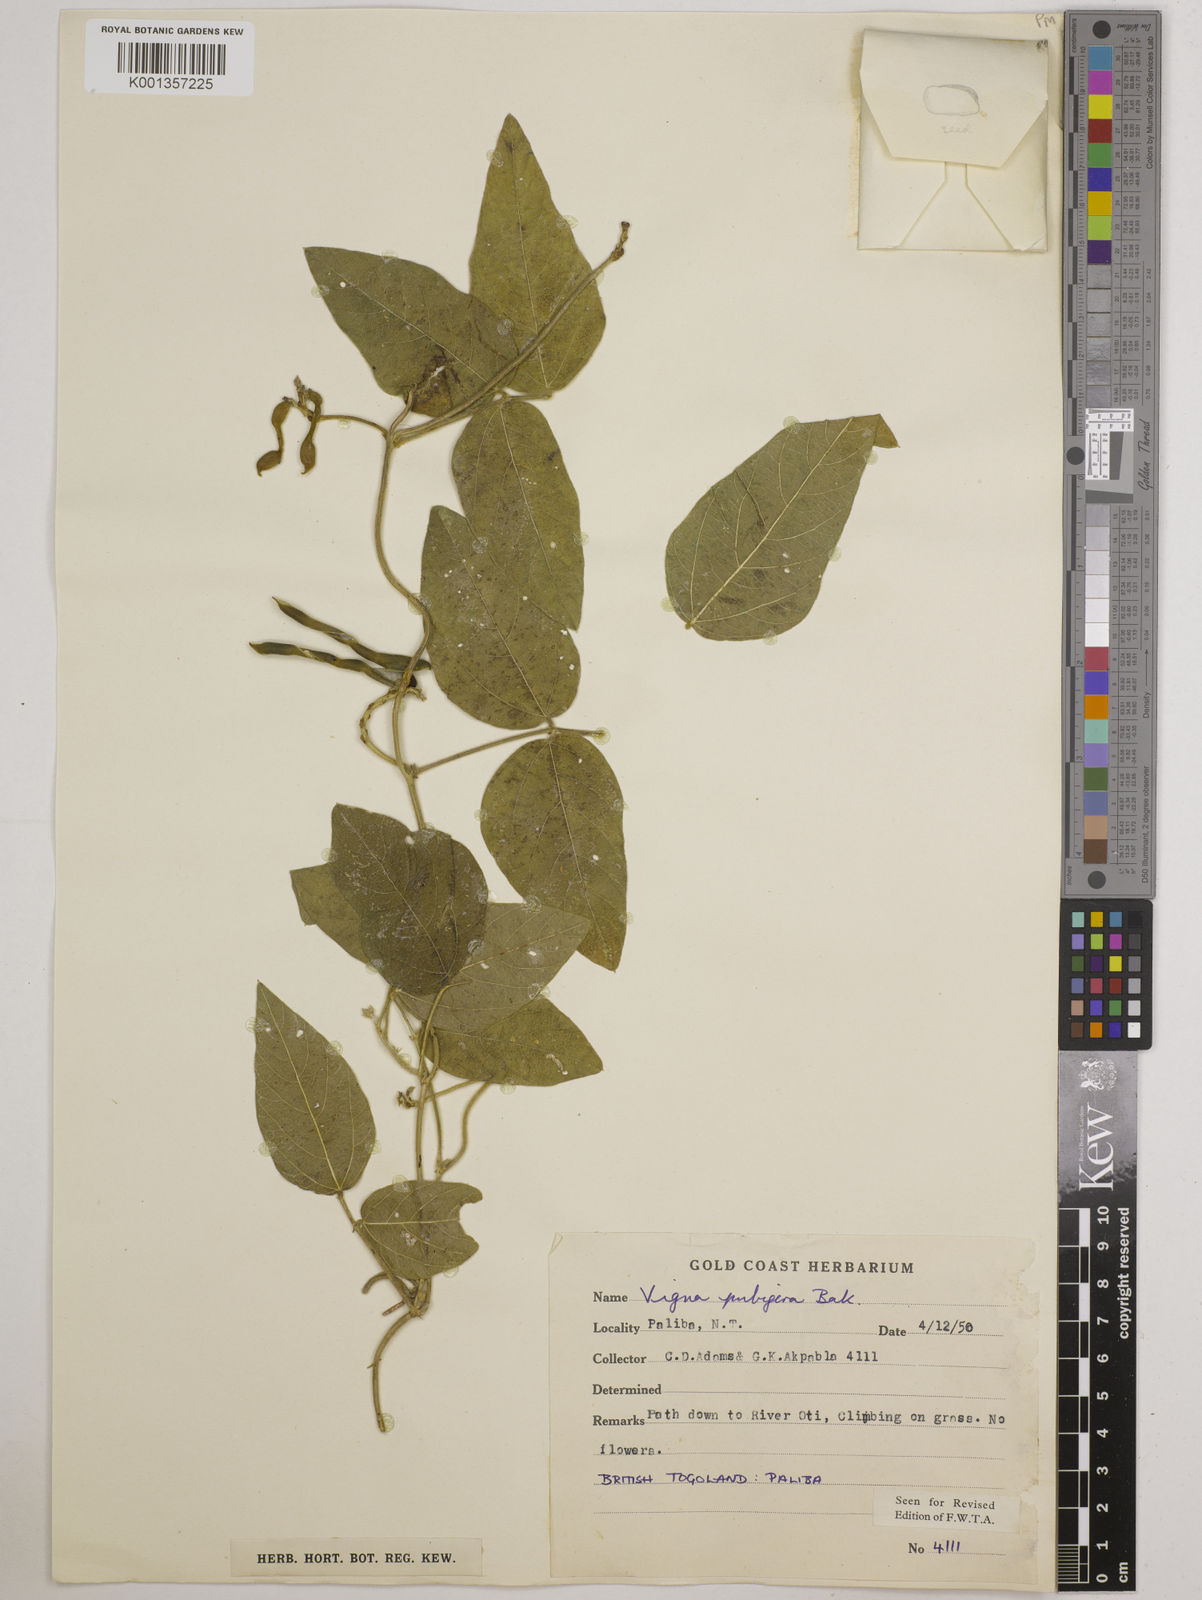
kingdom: Plantae
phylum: Tracheophyta
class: Magnoliopsida
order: Fabales
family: Fabaceae
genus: Vigna
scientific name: Vigna ambacensis
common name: Tsarkiyan zomo
